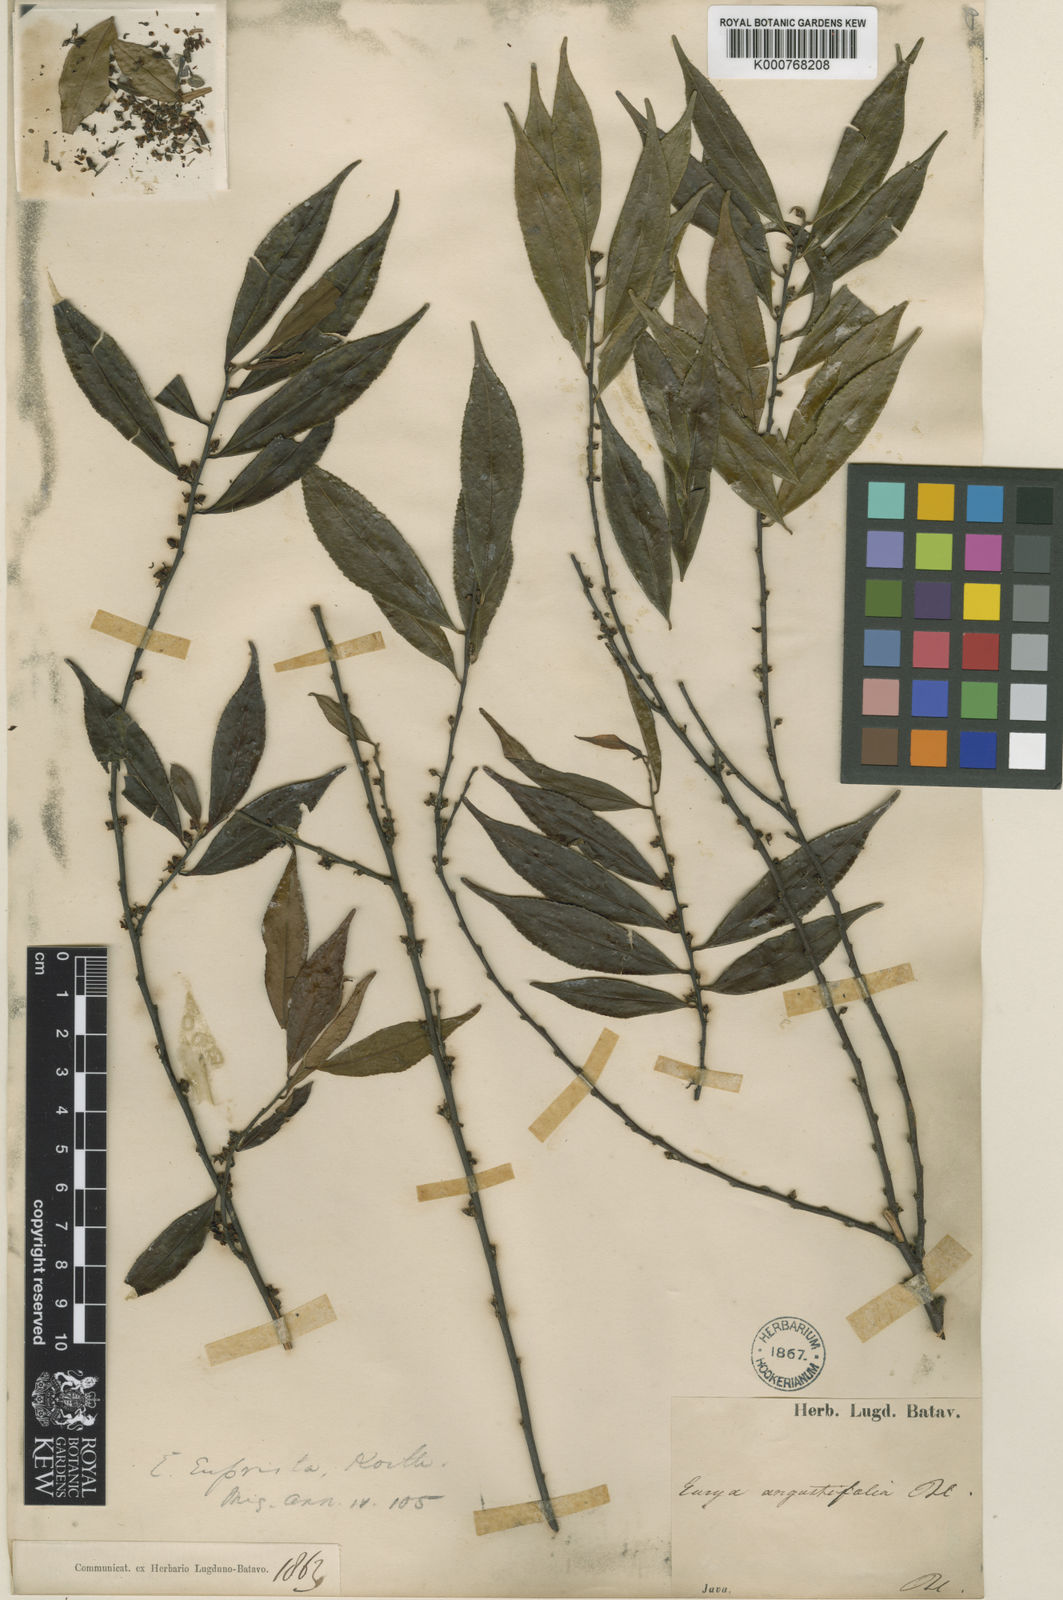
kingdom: Plantae
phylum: Tracheophyta
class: Magnoliopsida
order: Ericales
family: Pentaphylacaceae
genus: Eurya
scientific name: Eurya acuminata
